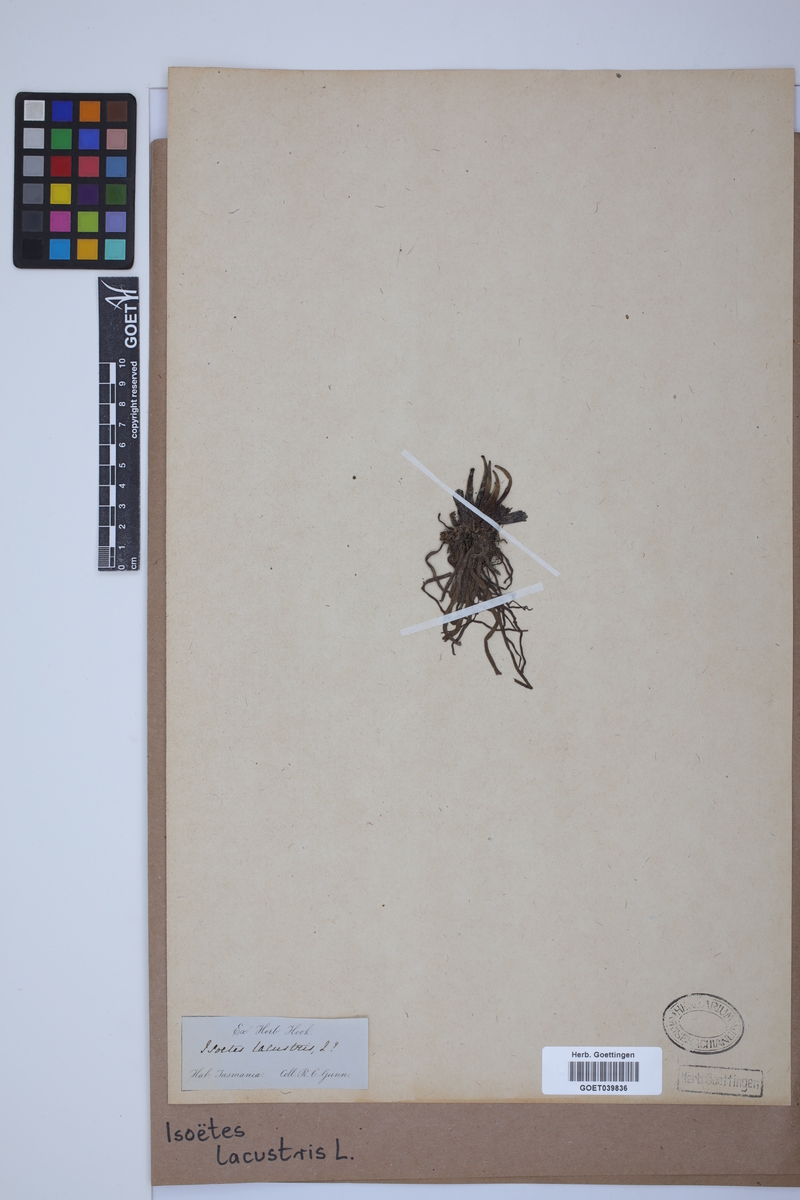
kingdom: Plantae
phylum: Tracheophyta
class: Lycopodiopsida
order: Isoetales
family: Isoetaceae
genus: Isoetes
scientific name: Isoetes lacustris
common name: Common quillwort
